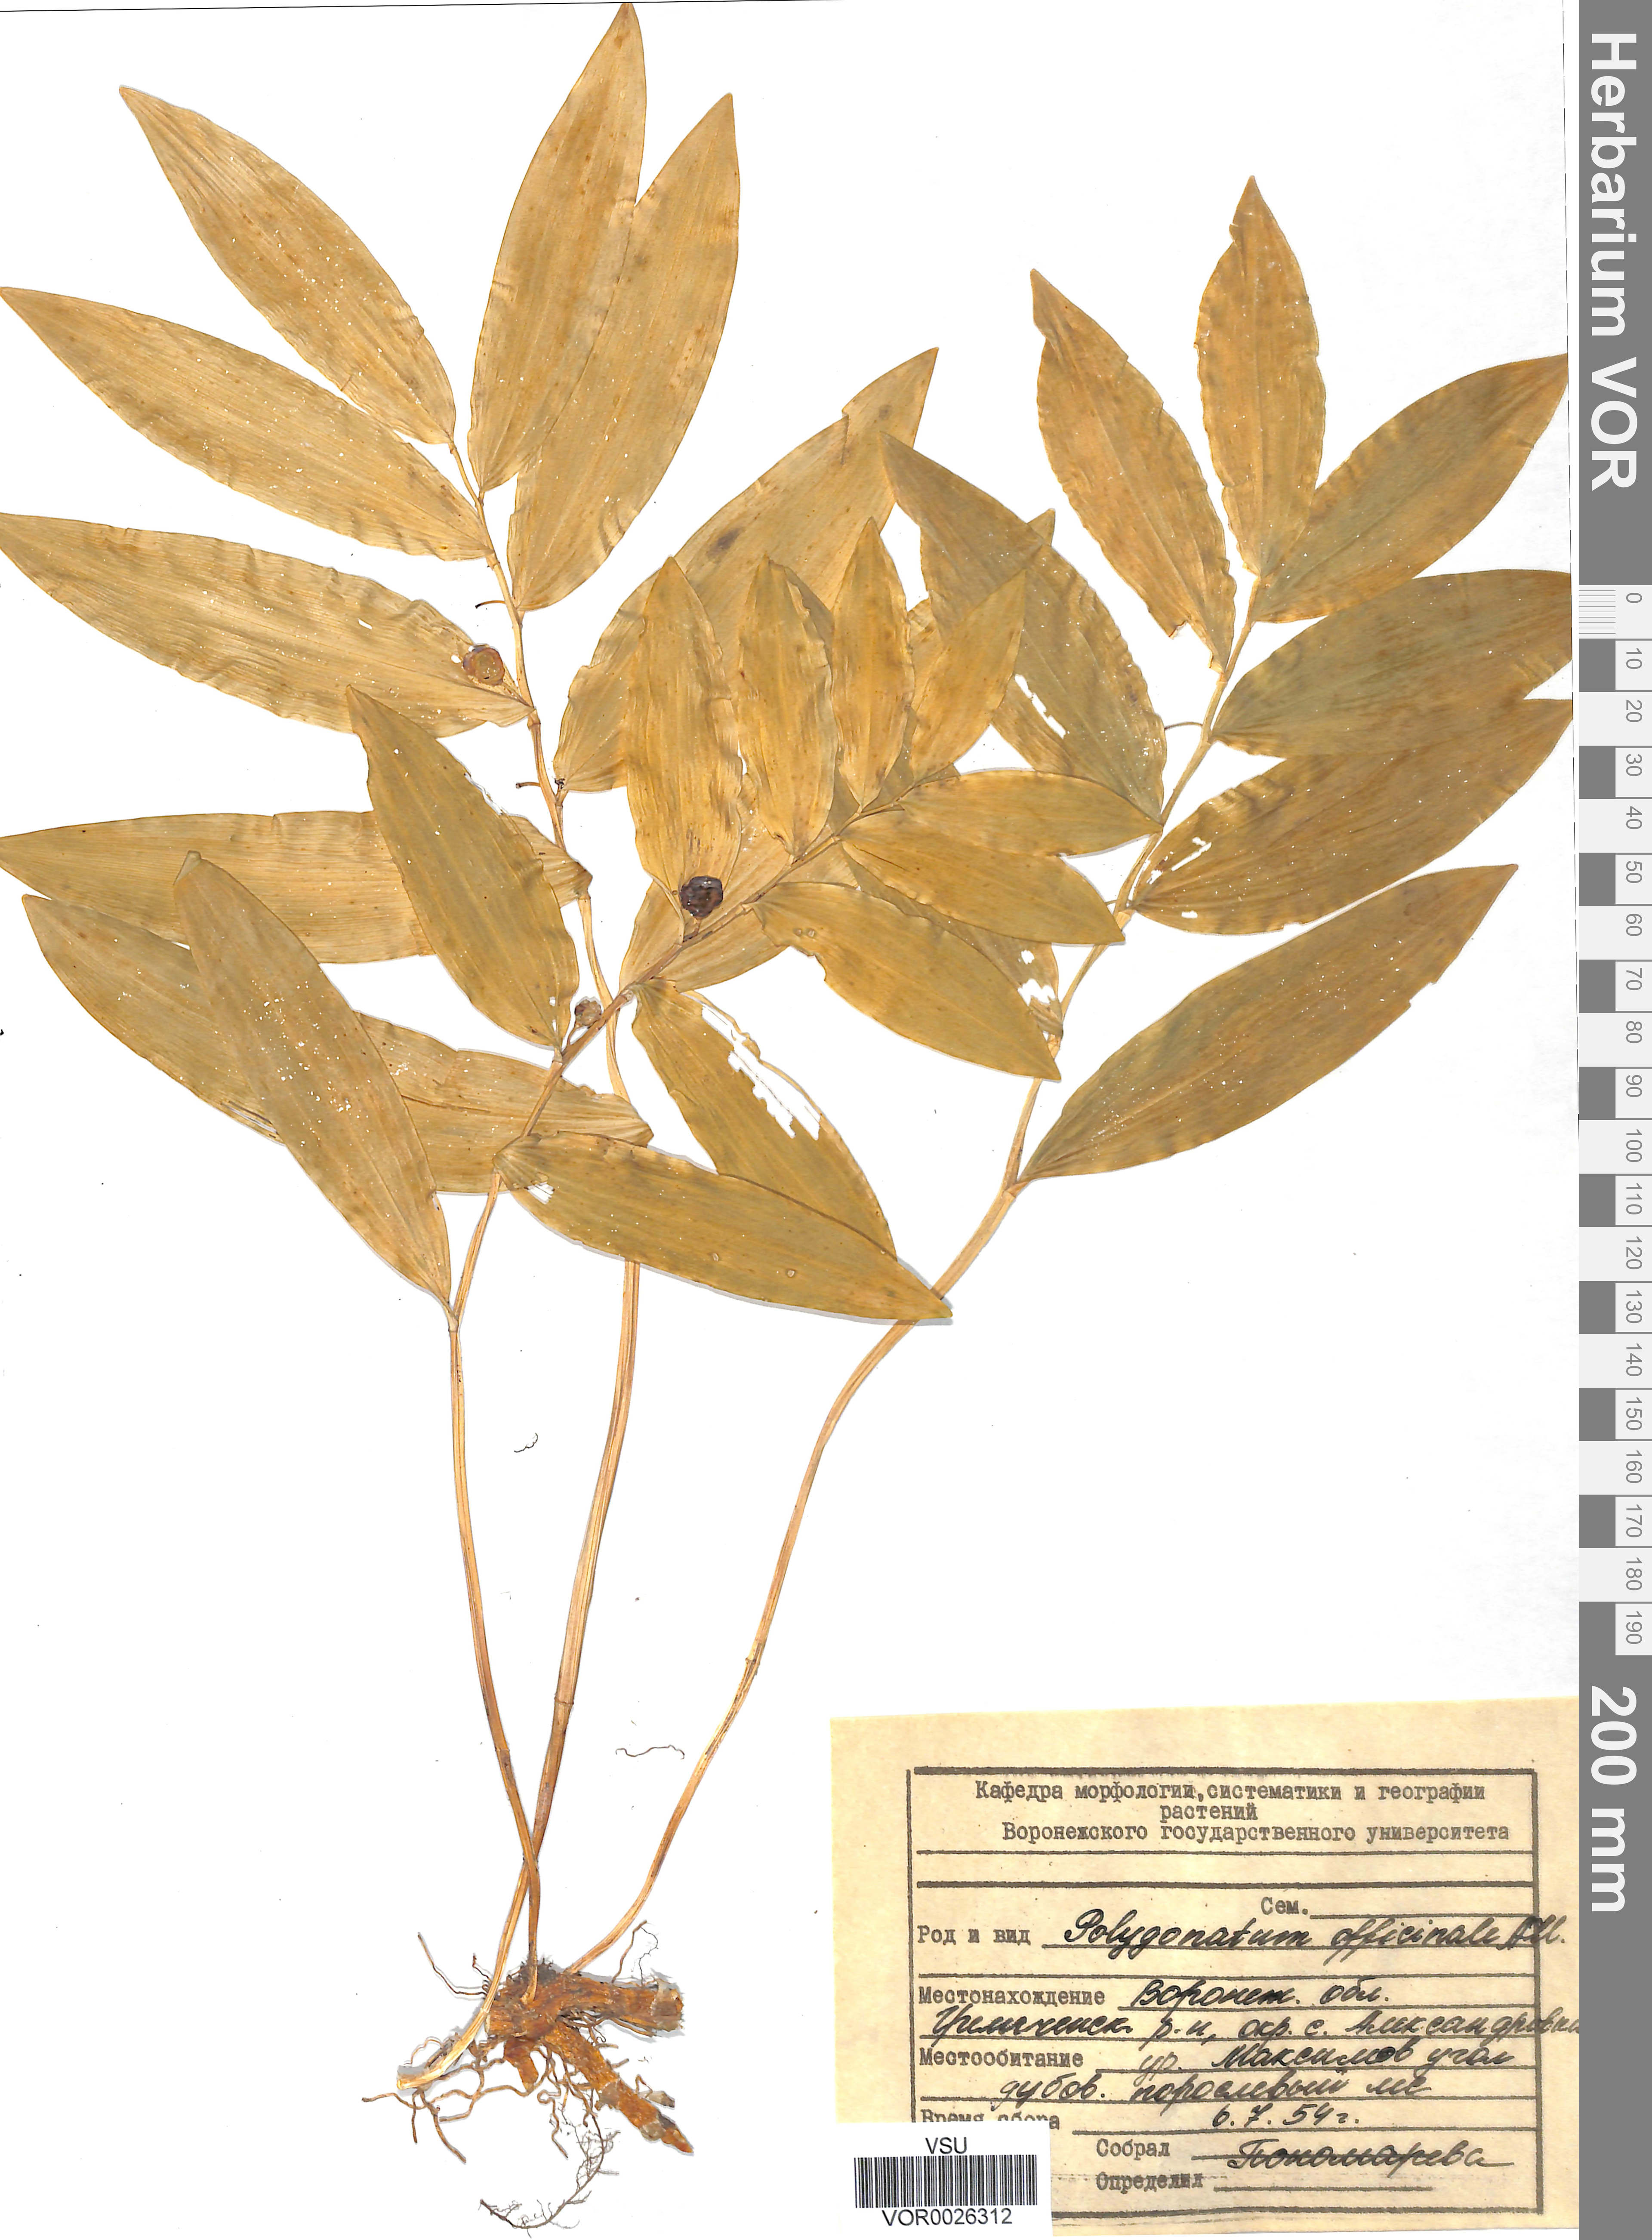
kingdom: Plantae
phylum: Tracheophyta
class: Liliopsida
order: Asparagales
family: Asparagaceae
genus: Polygonatum
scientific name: Polygonatum odoratum
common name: Angular solomon's-seal
